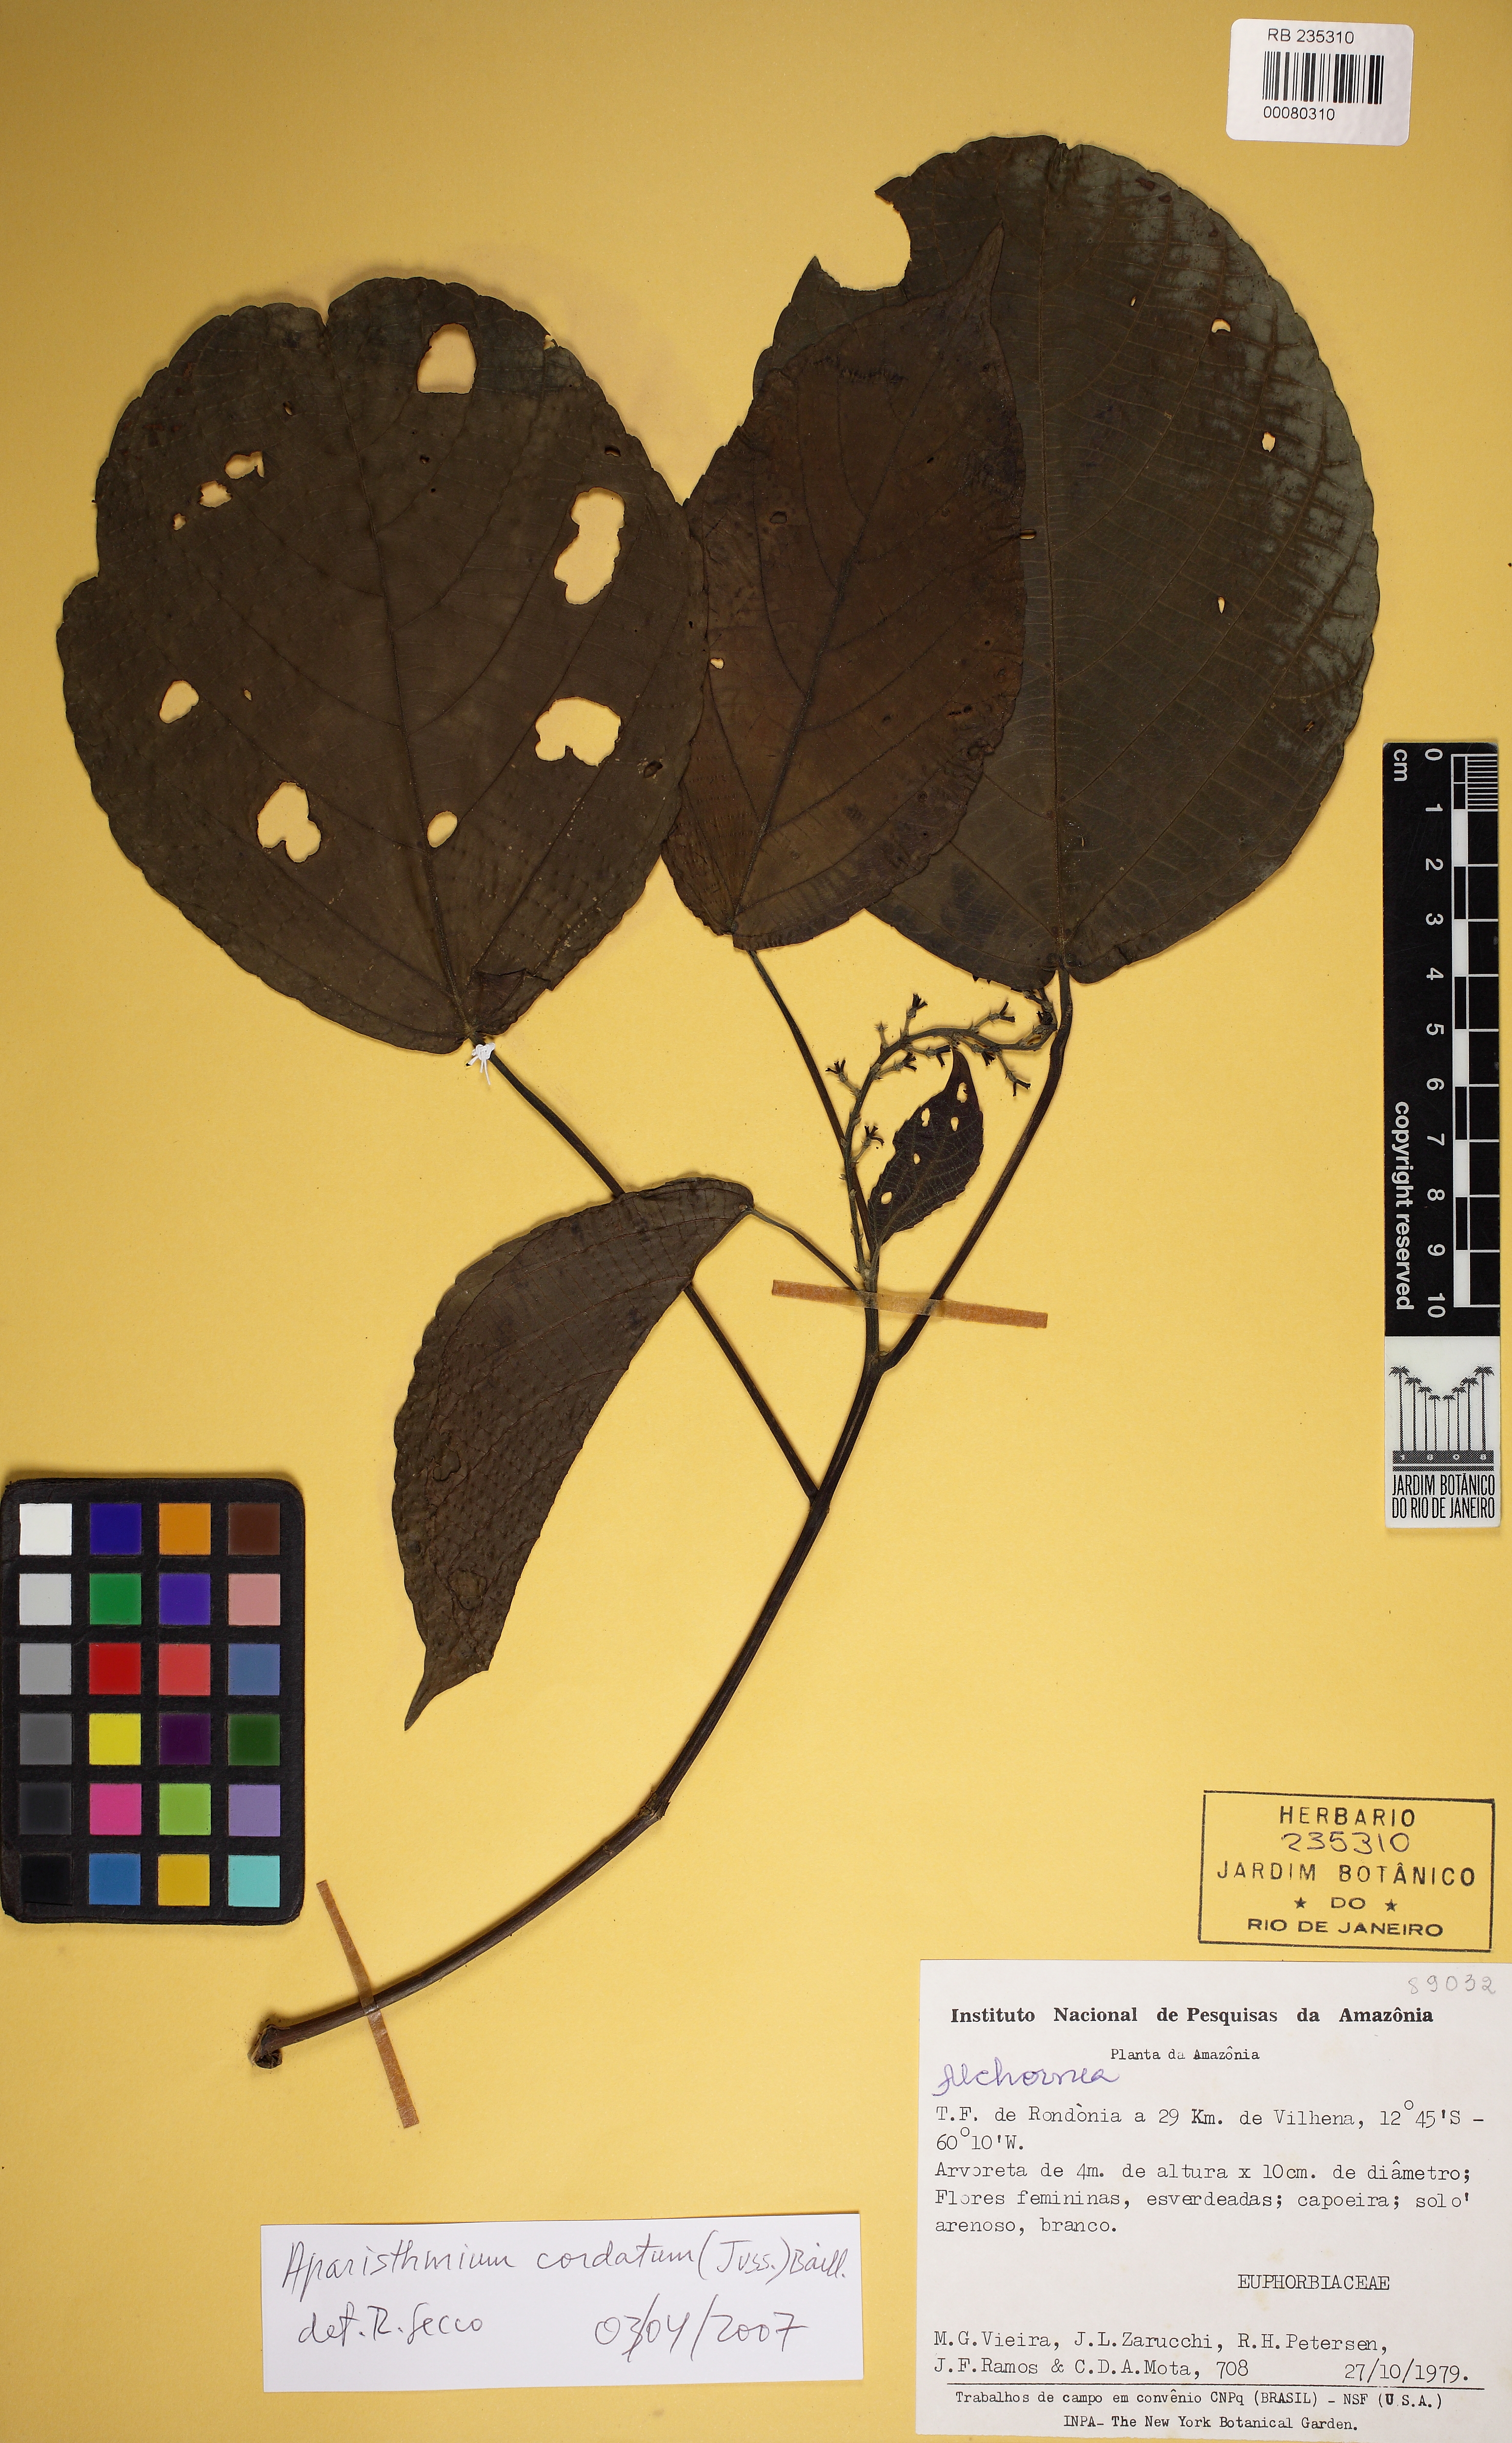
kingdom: Plantae
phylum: Tracheophyta
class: Magnoliopsida
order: Malpighiales
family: Euphorbiaceae
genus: Aparisthmium
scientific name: Aparisthmium cordatum
